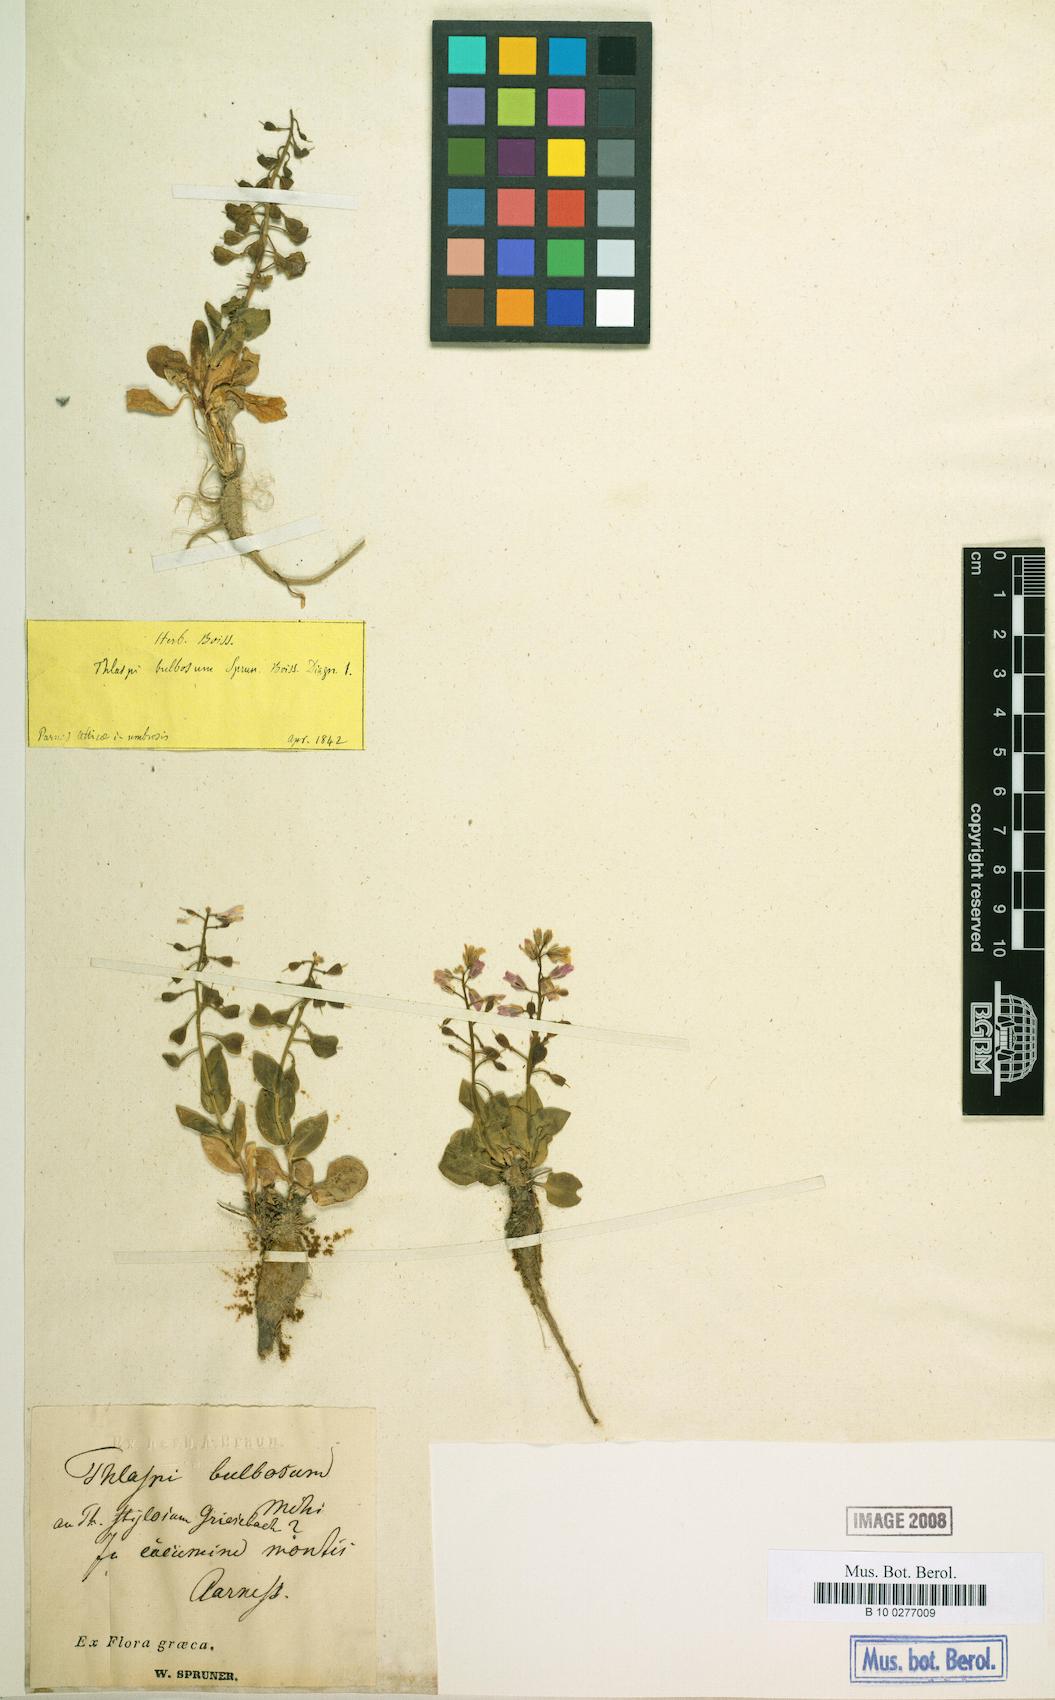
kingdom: Plantae
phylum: Tracheophyta
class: Magnoliopsida
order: Brassicales
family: Brassicaceae
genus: Noccaea
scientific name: Noccaea bulbosa
